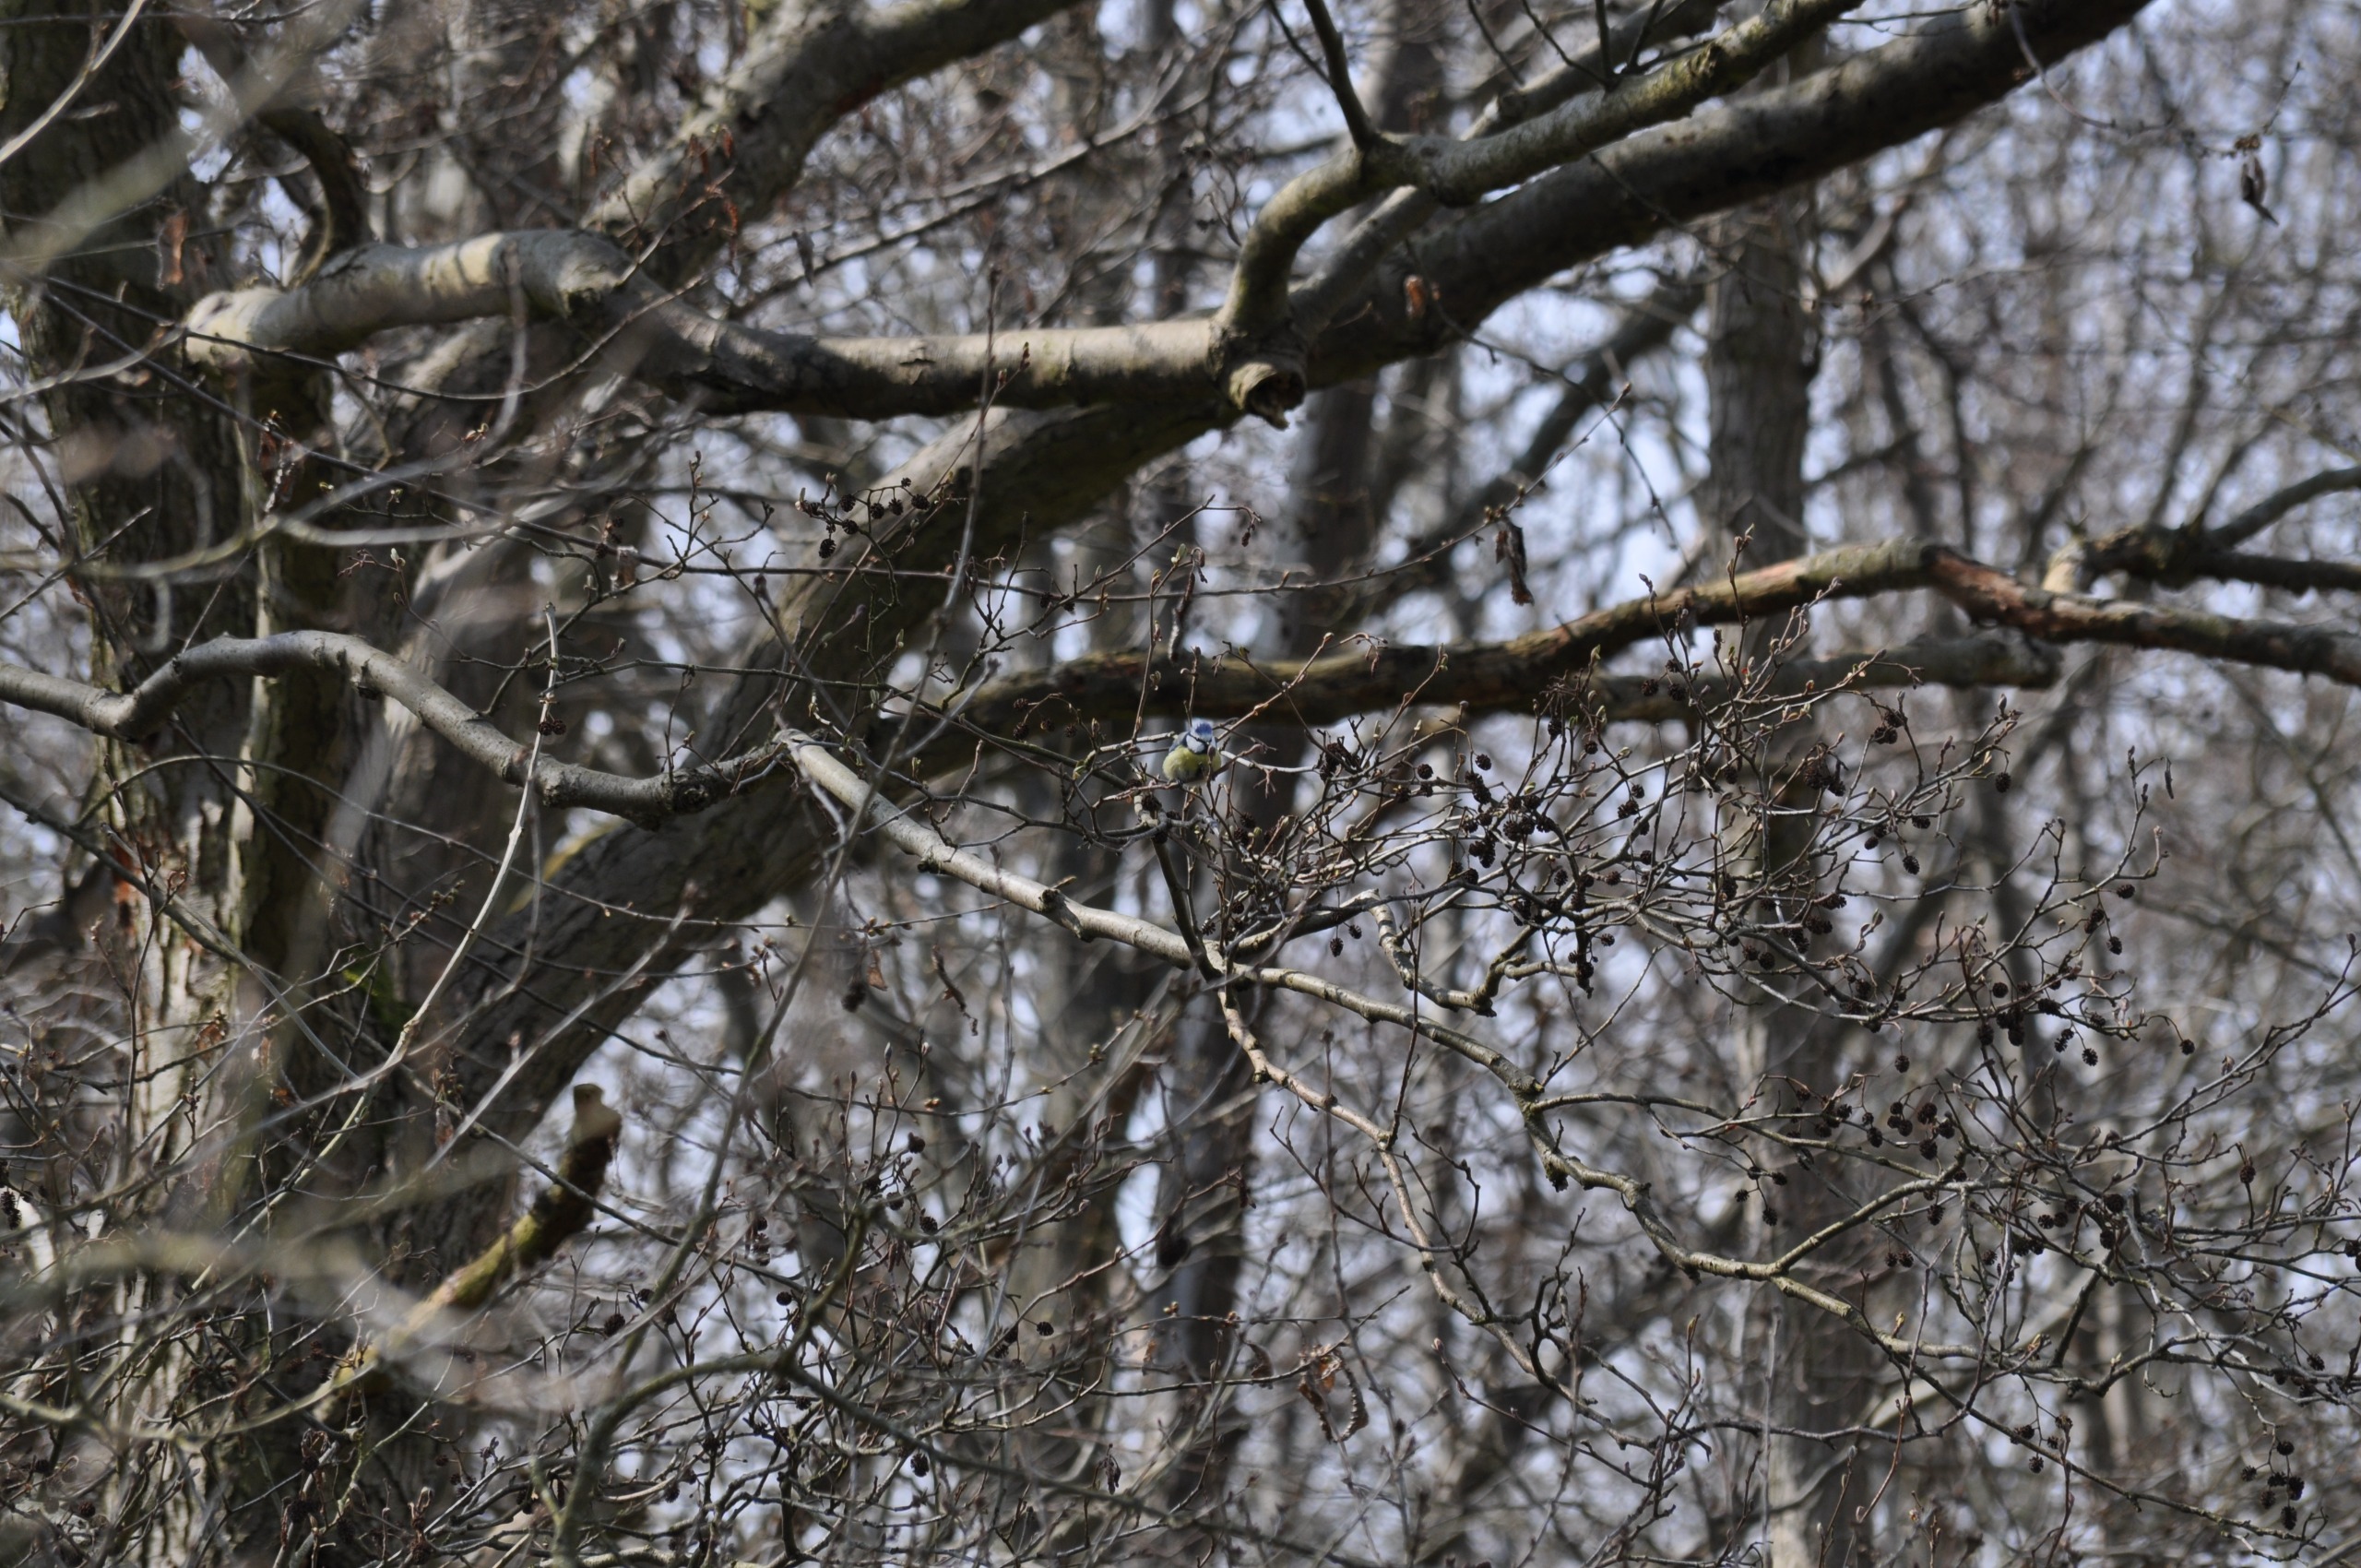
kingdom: Animalia
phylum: Chordata
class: Aves
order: Passeriformes
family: Paridae
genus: Cyanistes
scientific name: Cyanistes caeruleus
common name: Blåmejse
